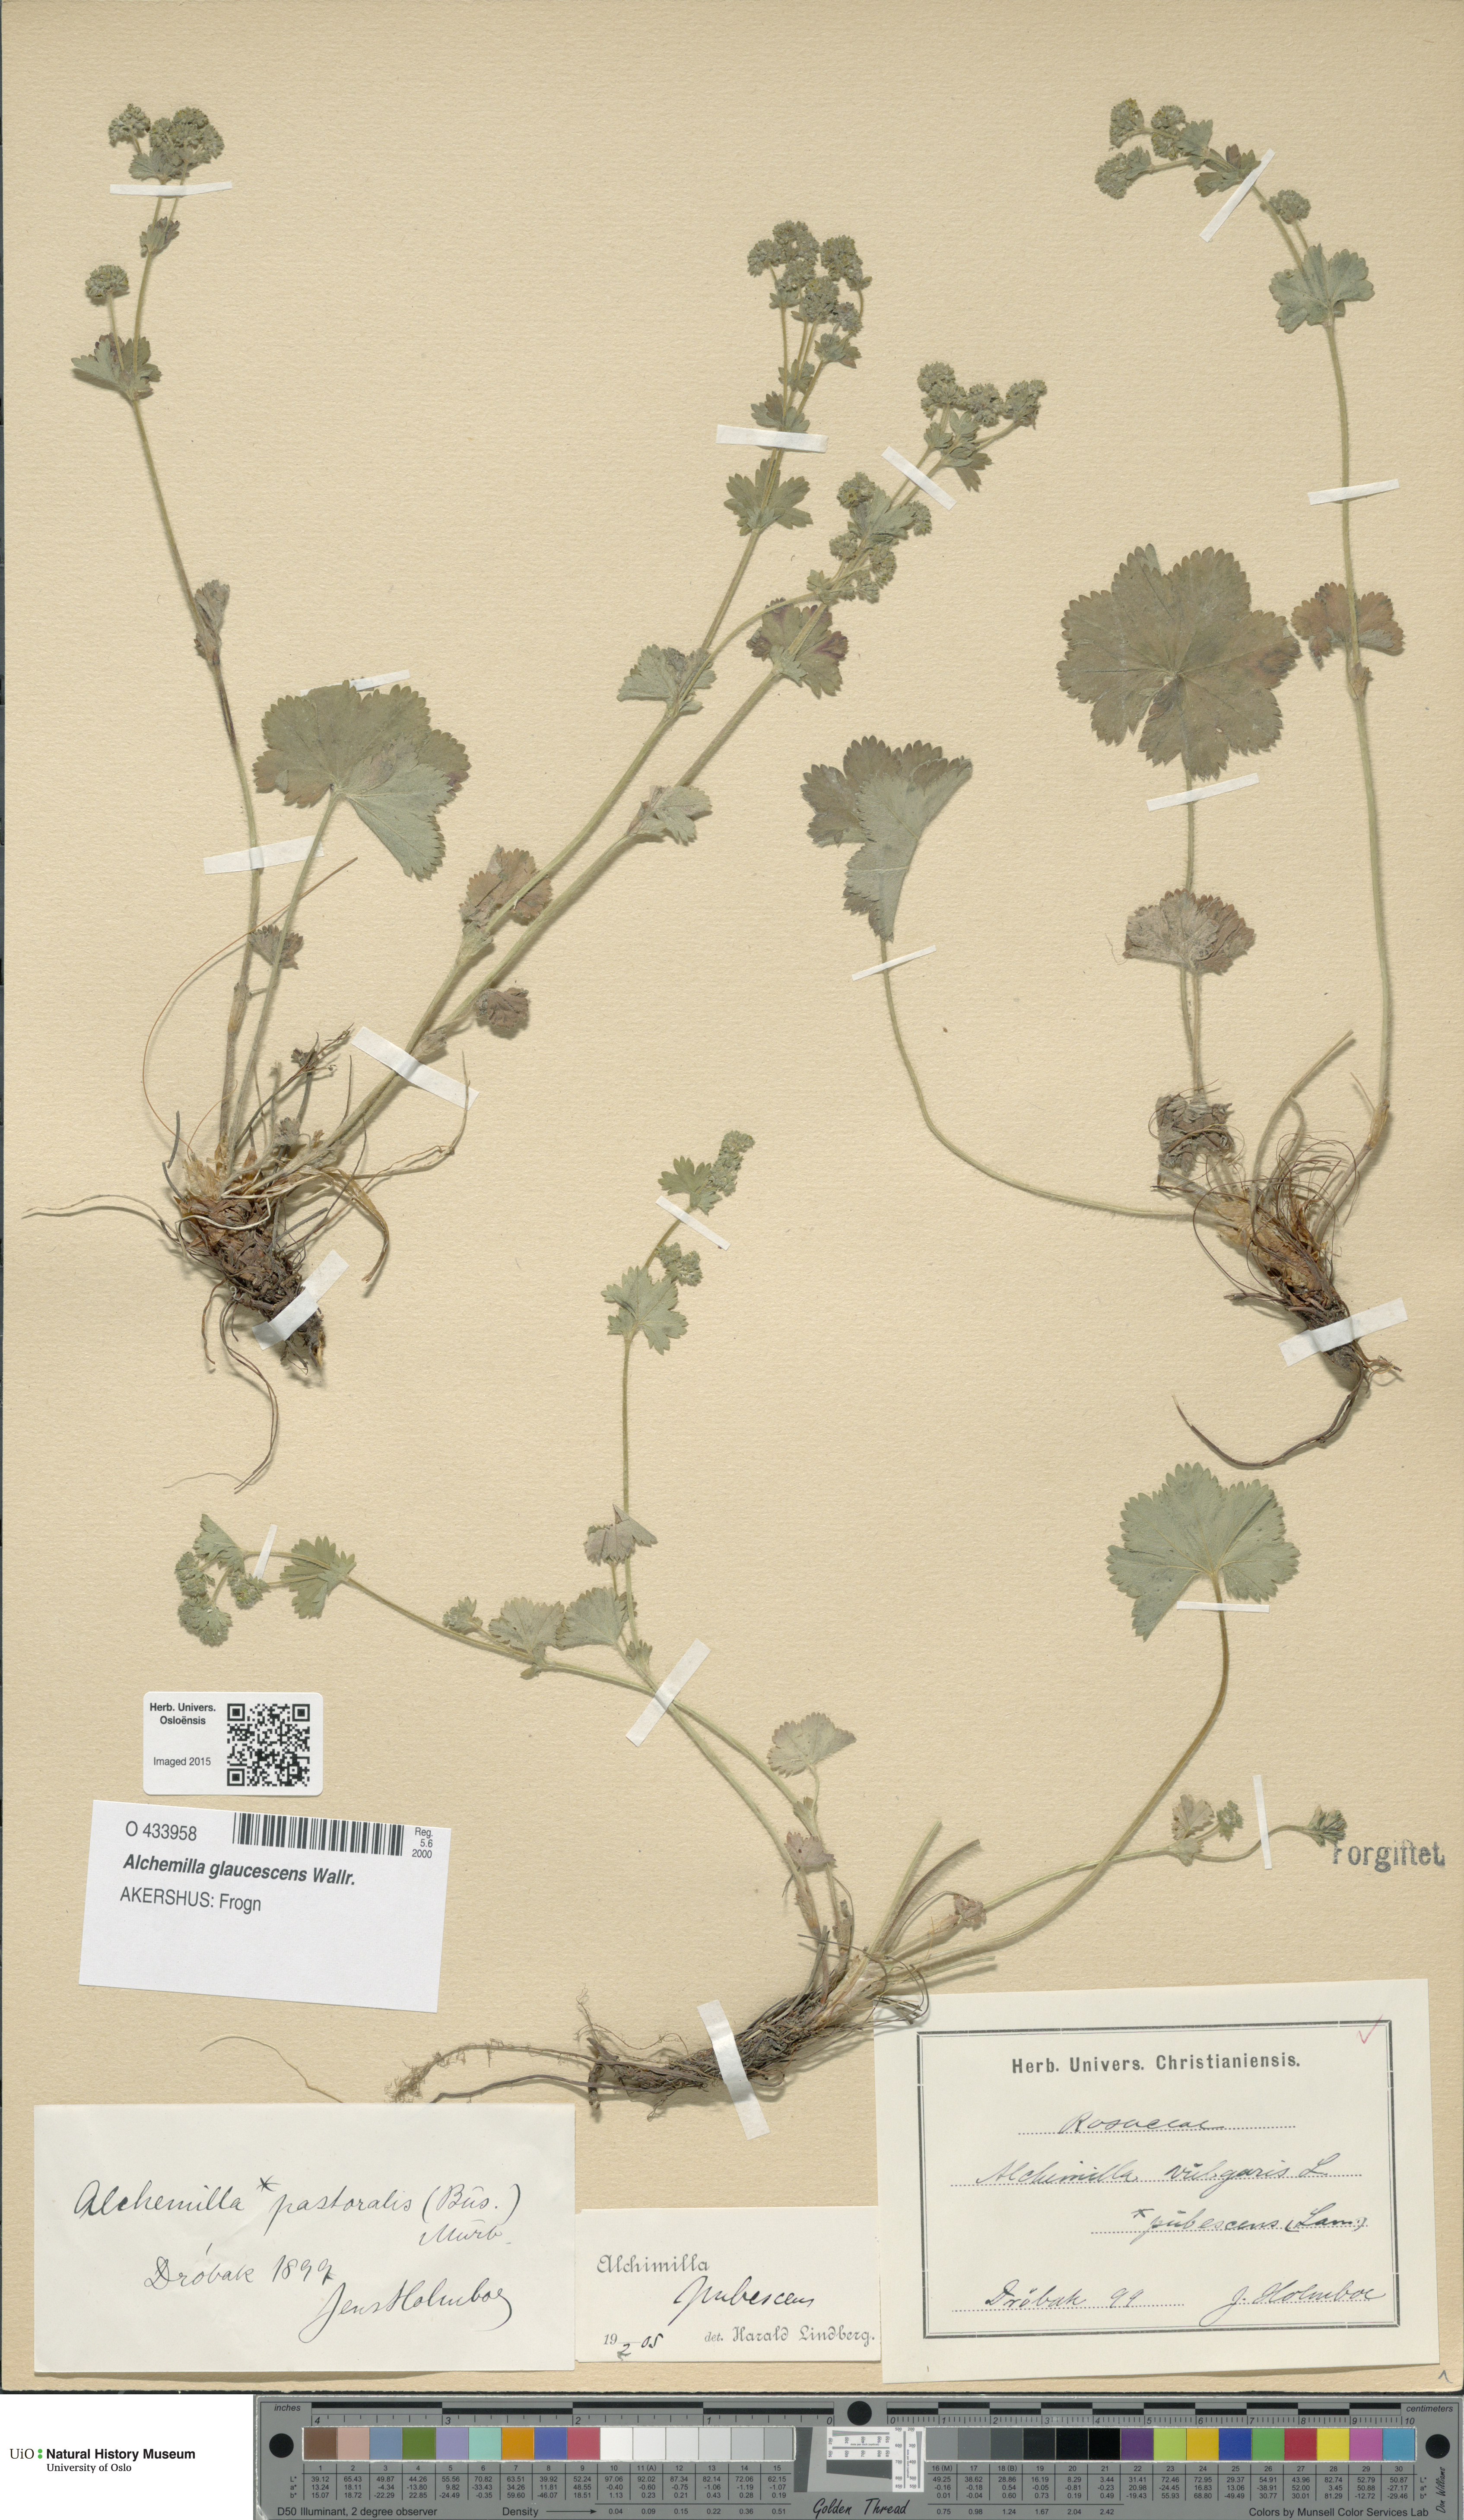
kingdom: Plantae
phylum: Tracheophyta
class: Magnoliopsida
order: Rosales
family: Rosaceae
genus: Alchemilla
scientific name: Alchemilla glaucescens
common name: Silky lady's mantle
